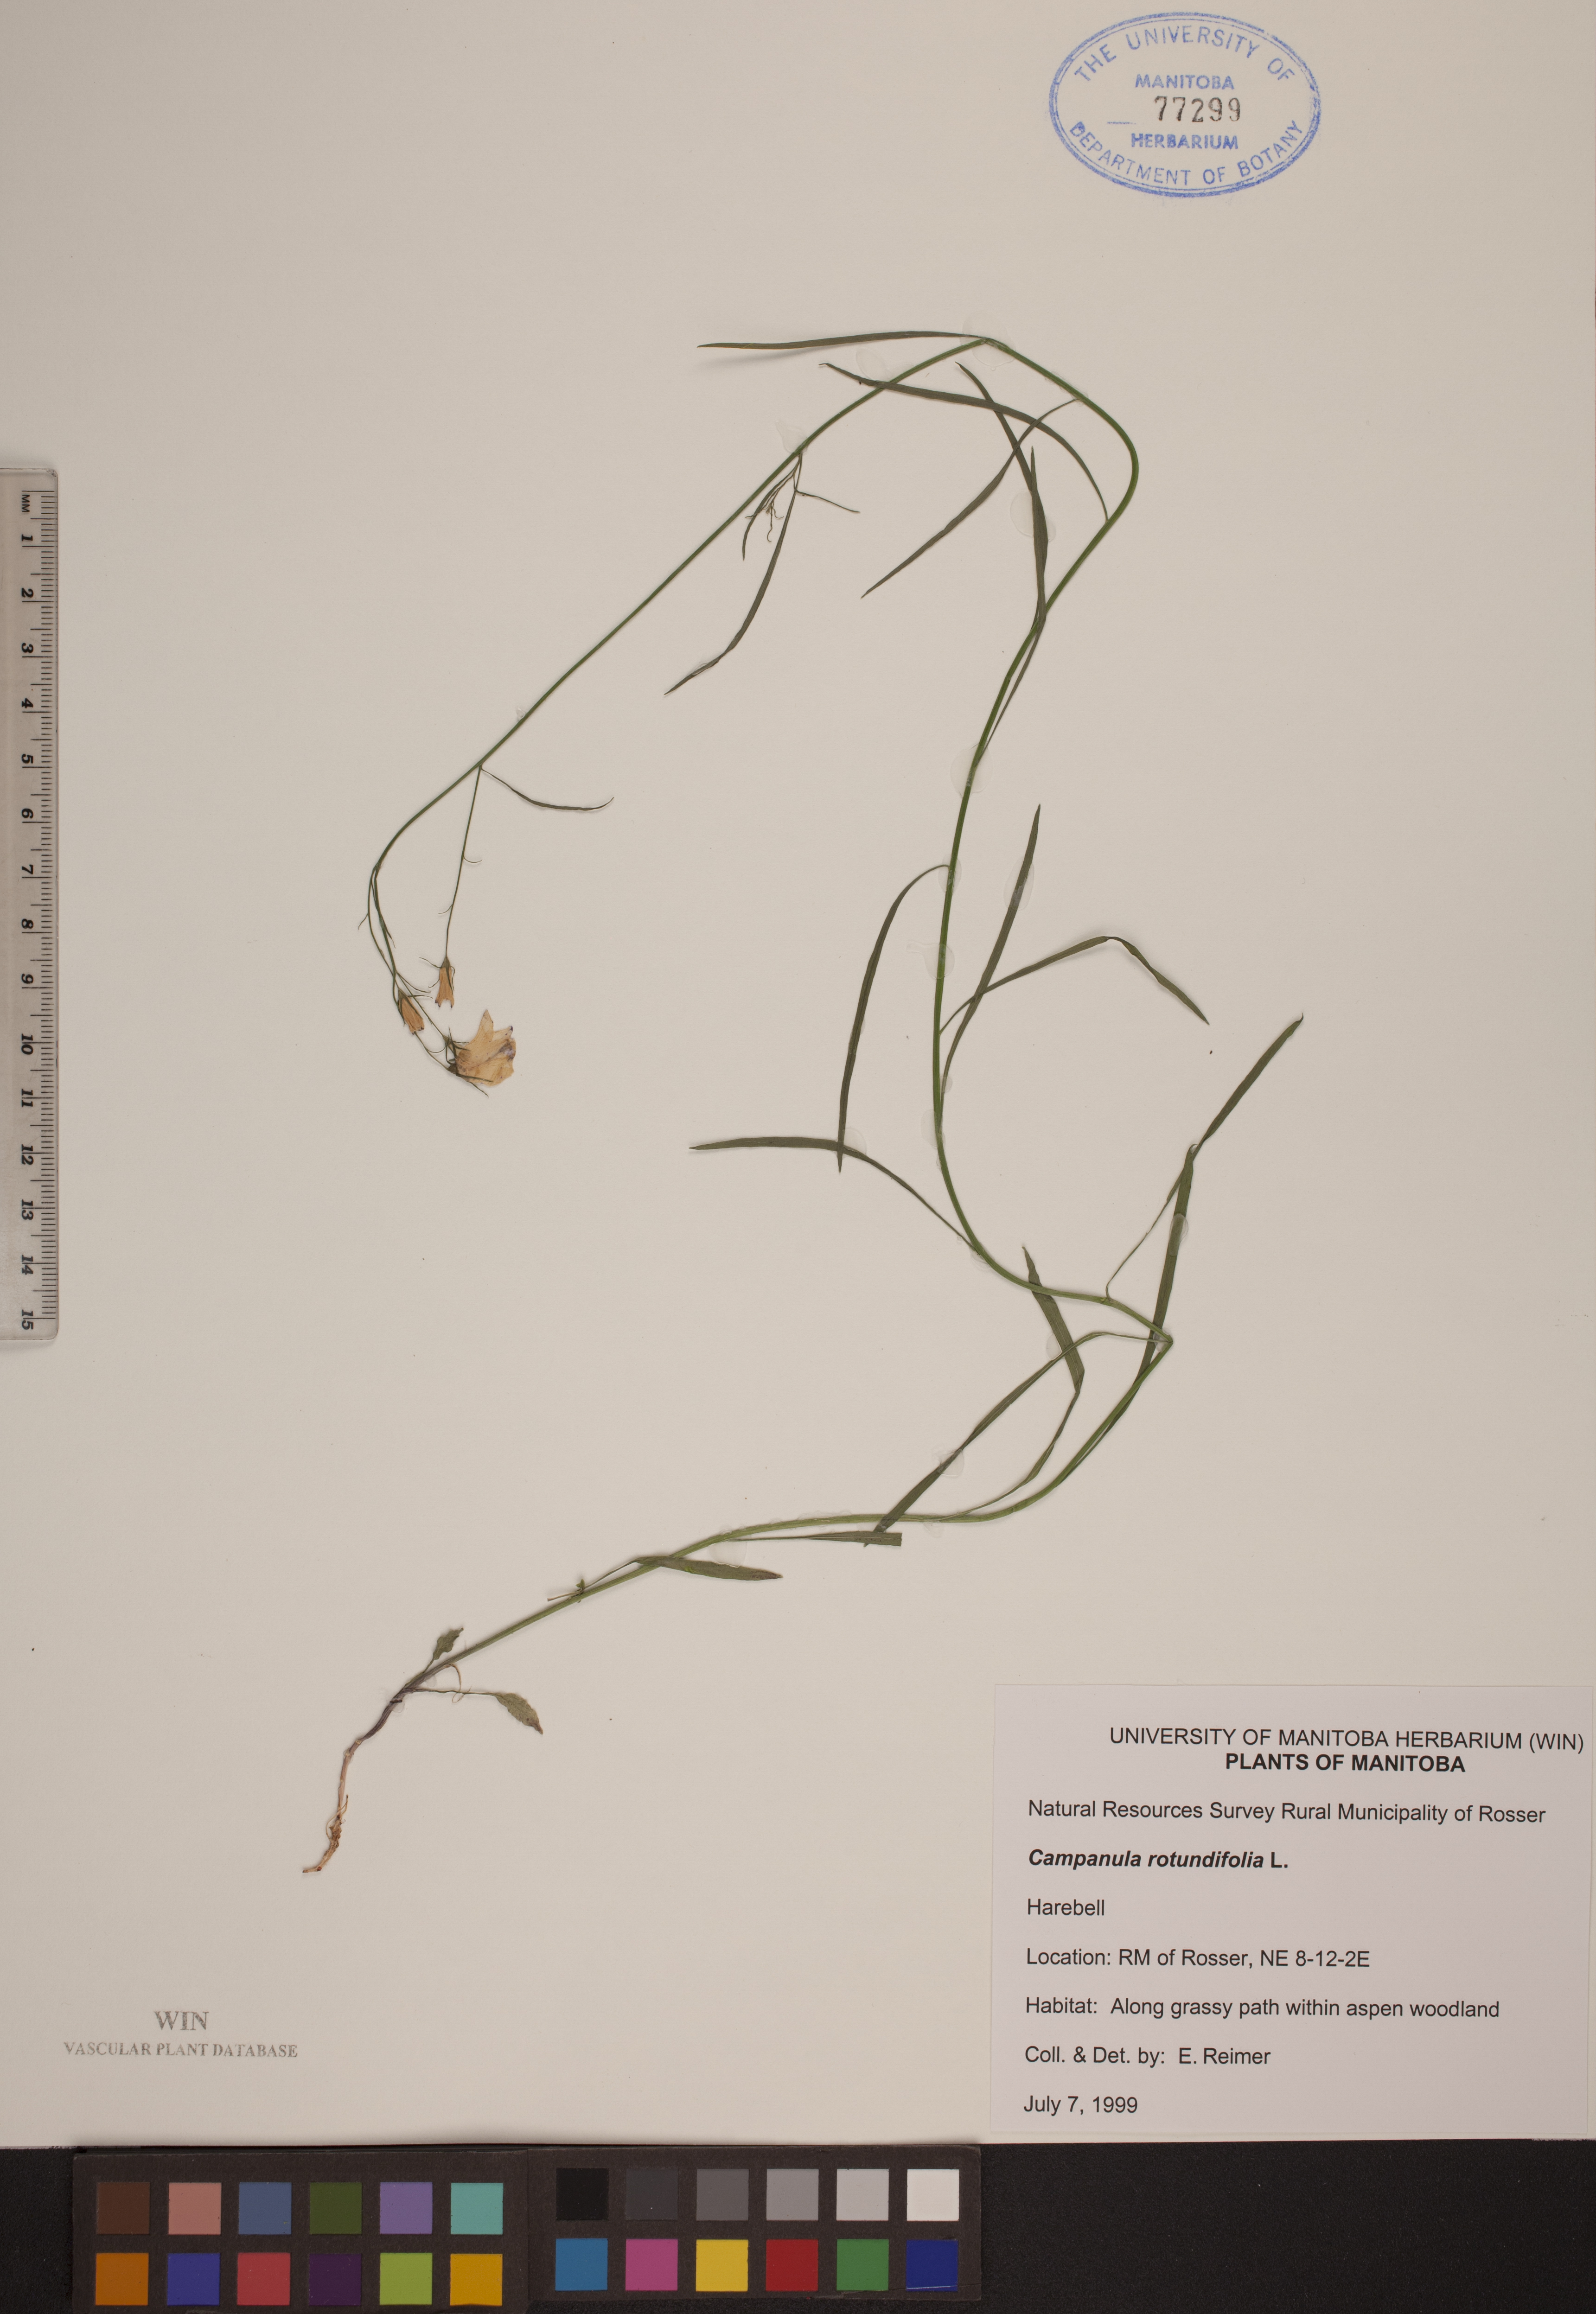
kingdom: Plantae
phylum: Tracheophyta
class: Magnoliopsida
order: Asterales
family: Campanulaceae
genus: Campanula
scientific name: Campanula rotundifolia
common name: Harebell
